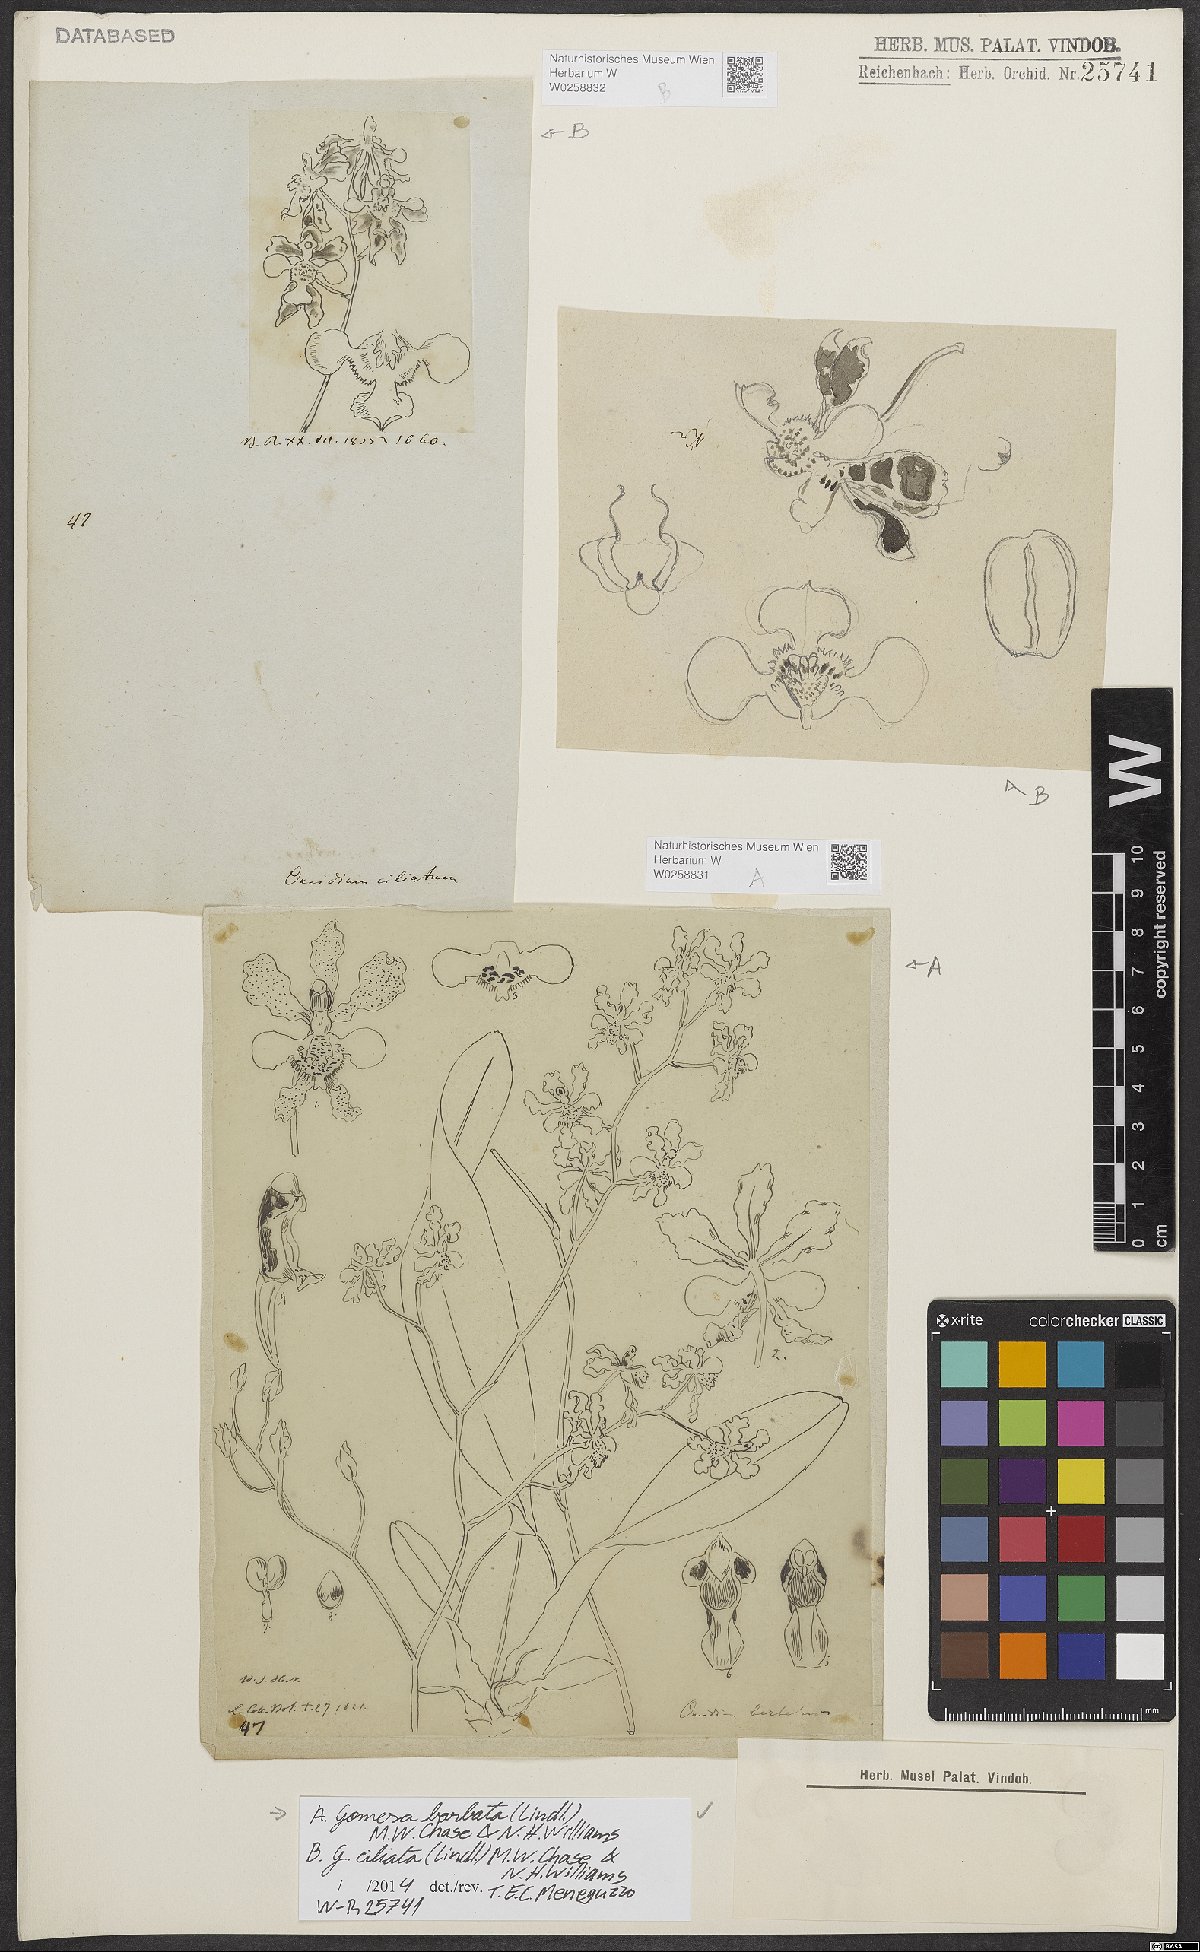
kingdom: Plantae
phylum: Tracheophyta
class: Liliopsida
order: Asparagales
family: Orchidaceae
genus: Gomesa
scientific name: Gomesa ciliata
